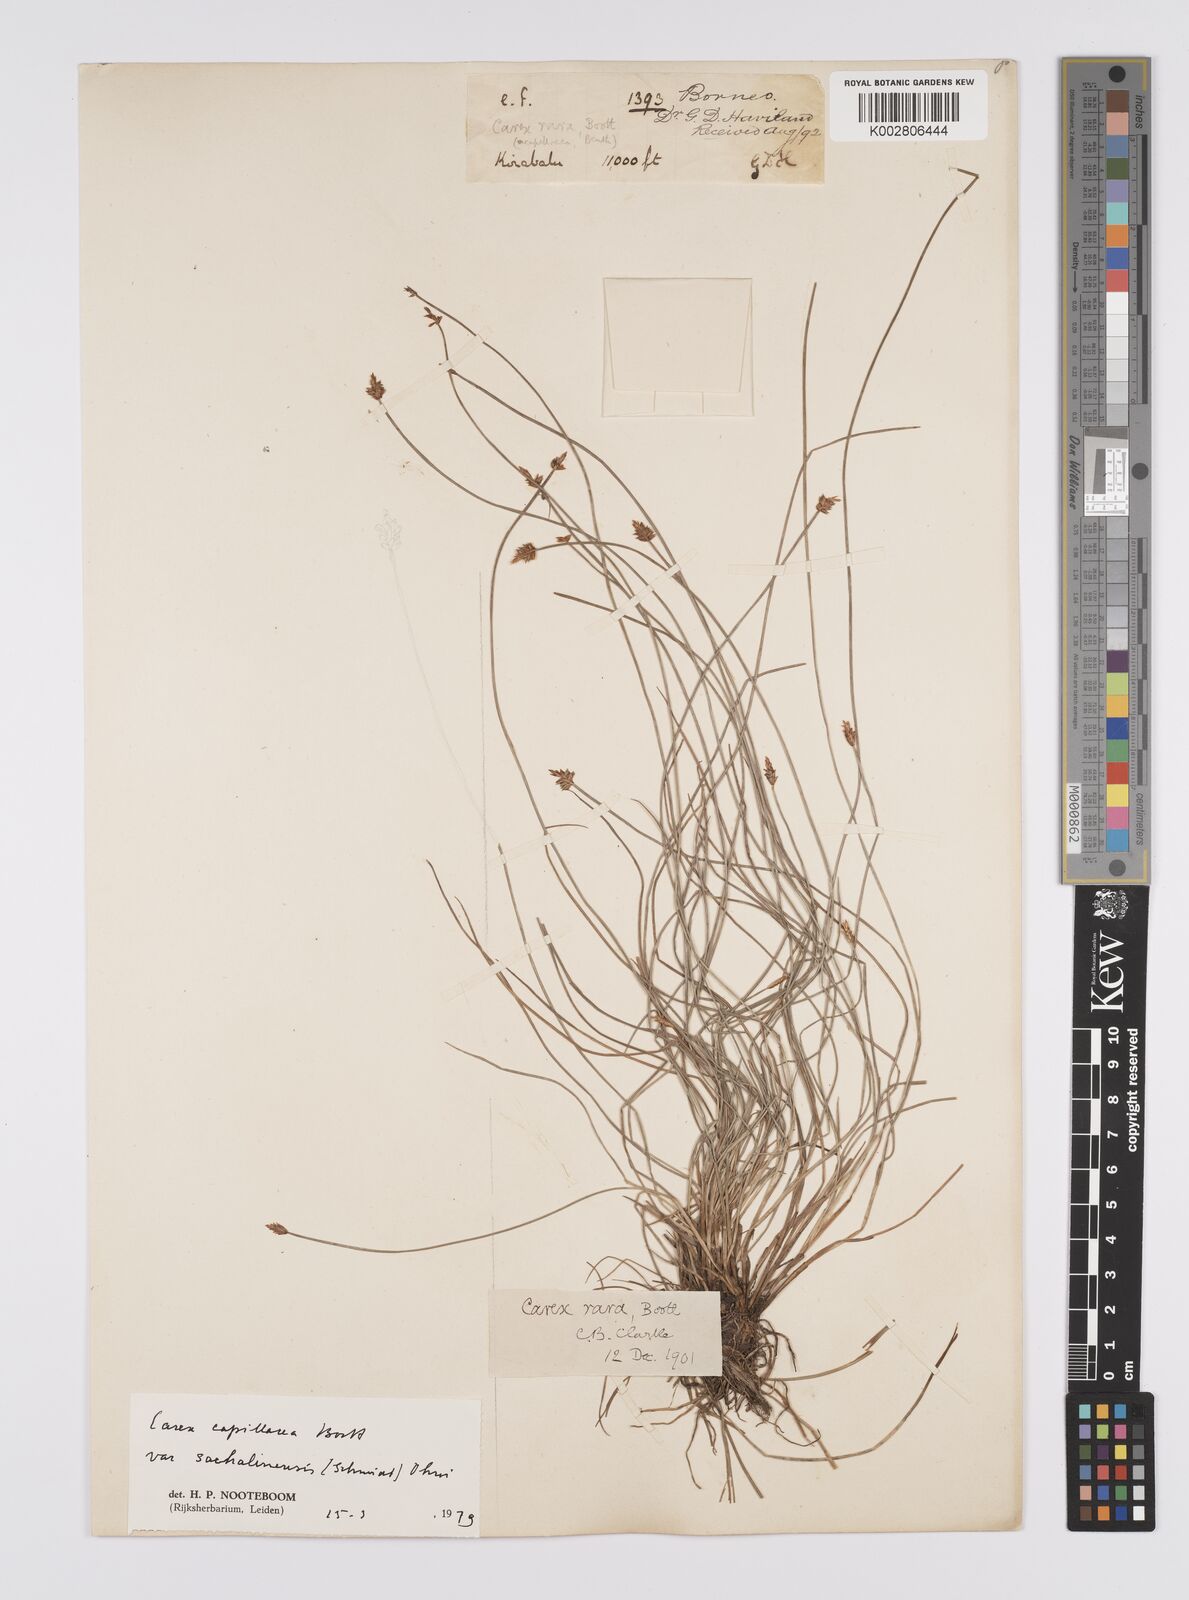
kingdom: Plantae
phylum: Tracheophyta
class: Liliopsida
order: Poales
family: Cyperaceae
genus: Carex
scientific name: Carex capillacea
